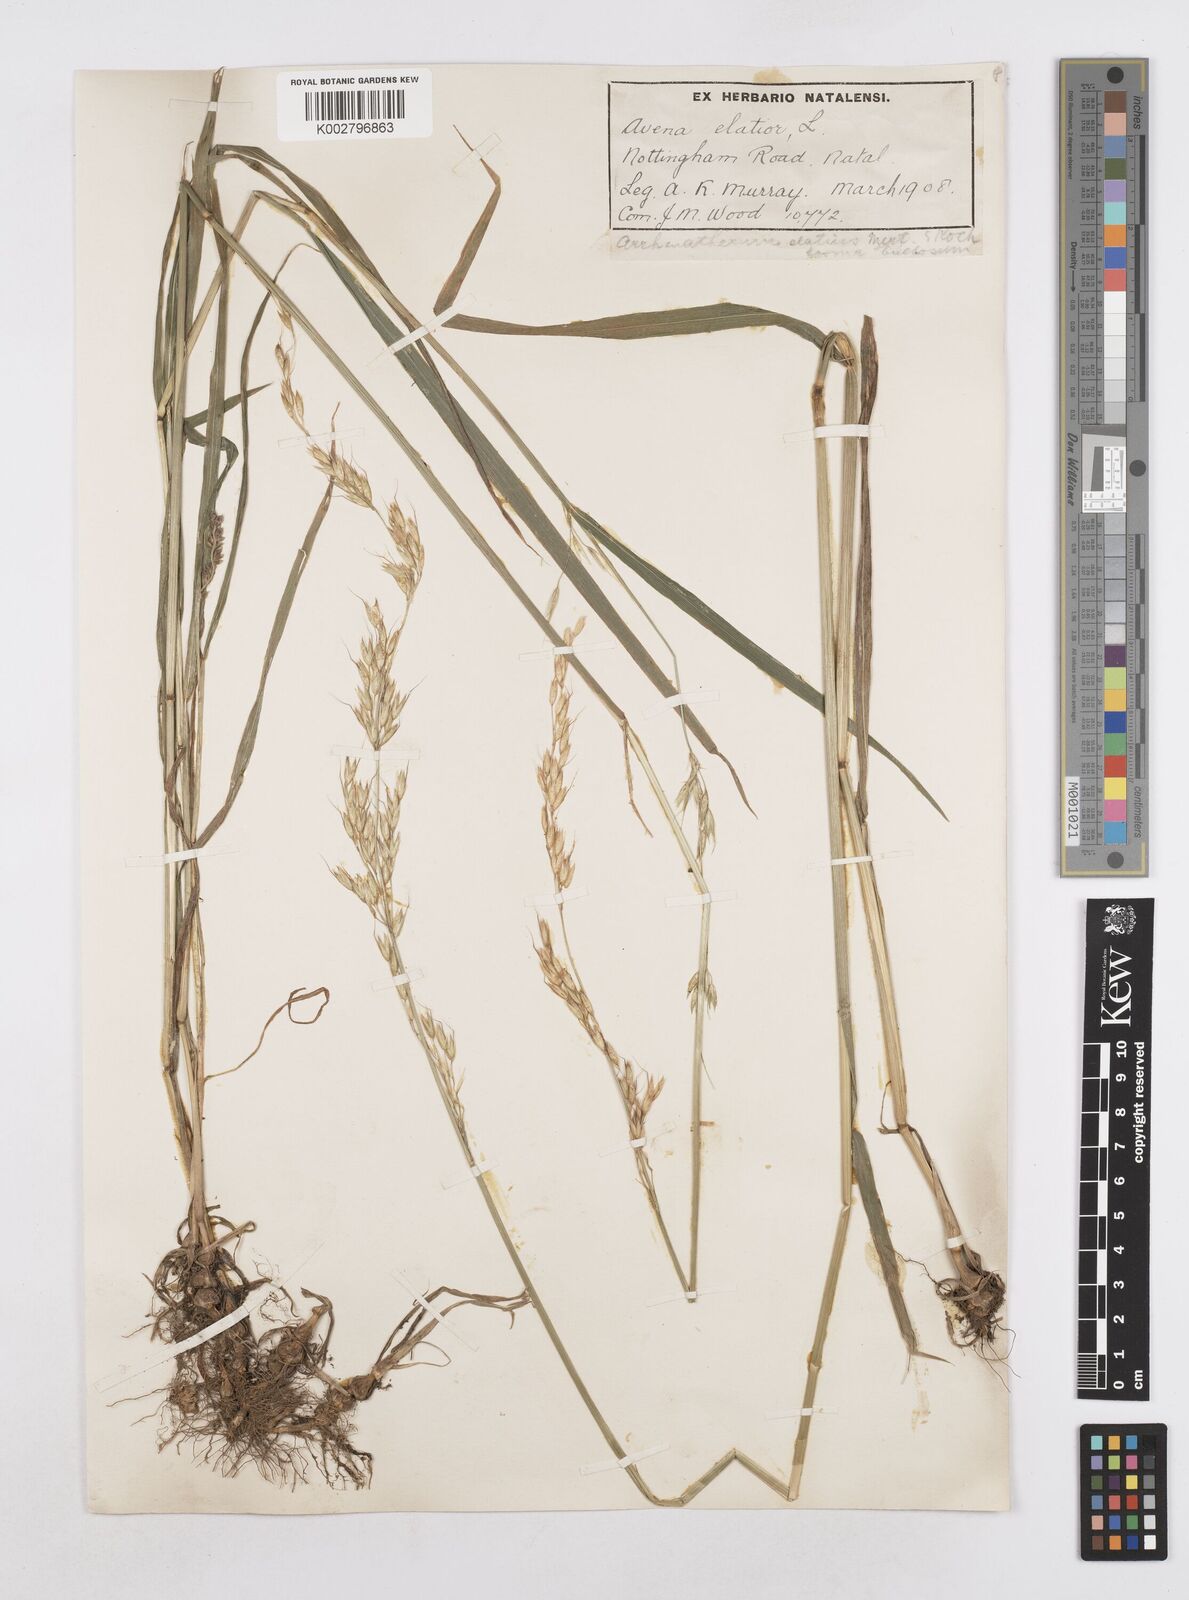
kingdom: Plantae
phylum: Tracheophyta
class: Liliopsida
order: Poales
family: Poaceae
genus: Arrhenatherum
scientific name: Arrhenatherum elatius
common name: Tall oatgrass
